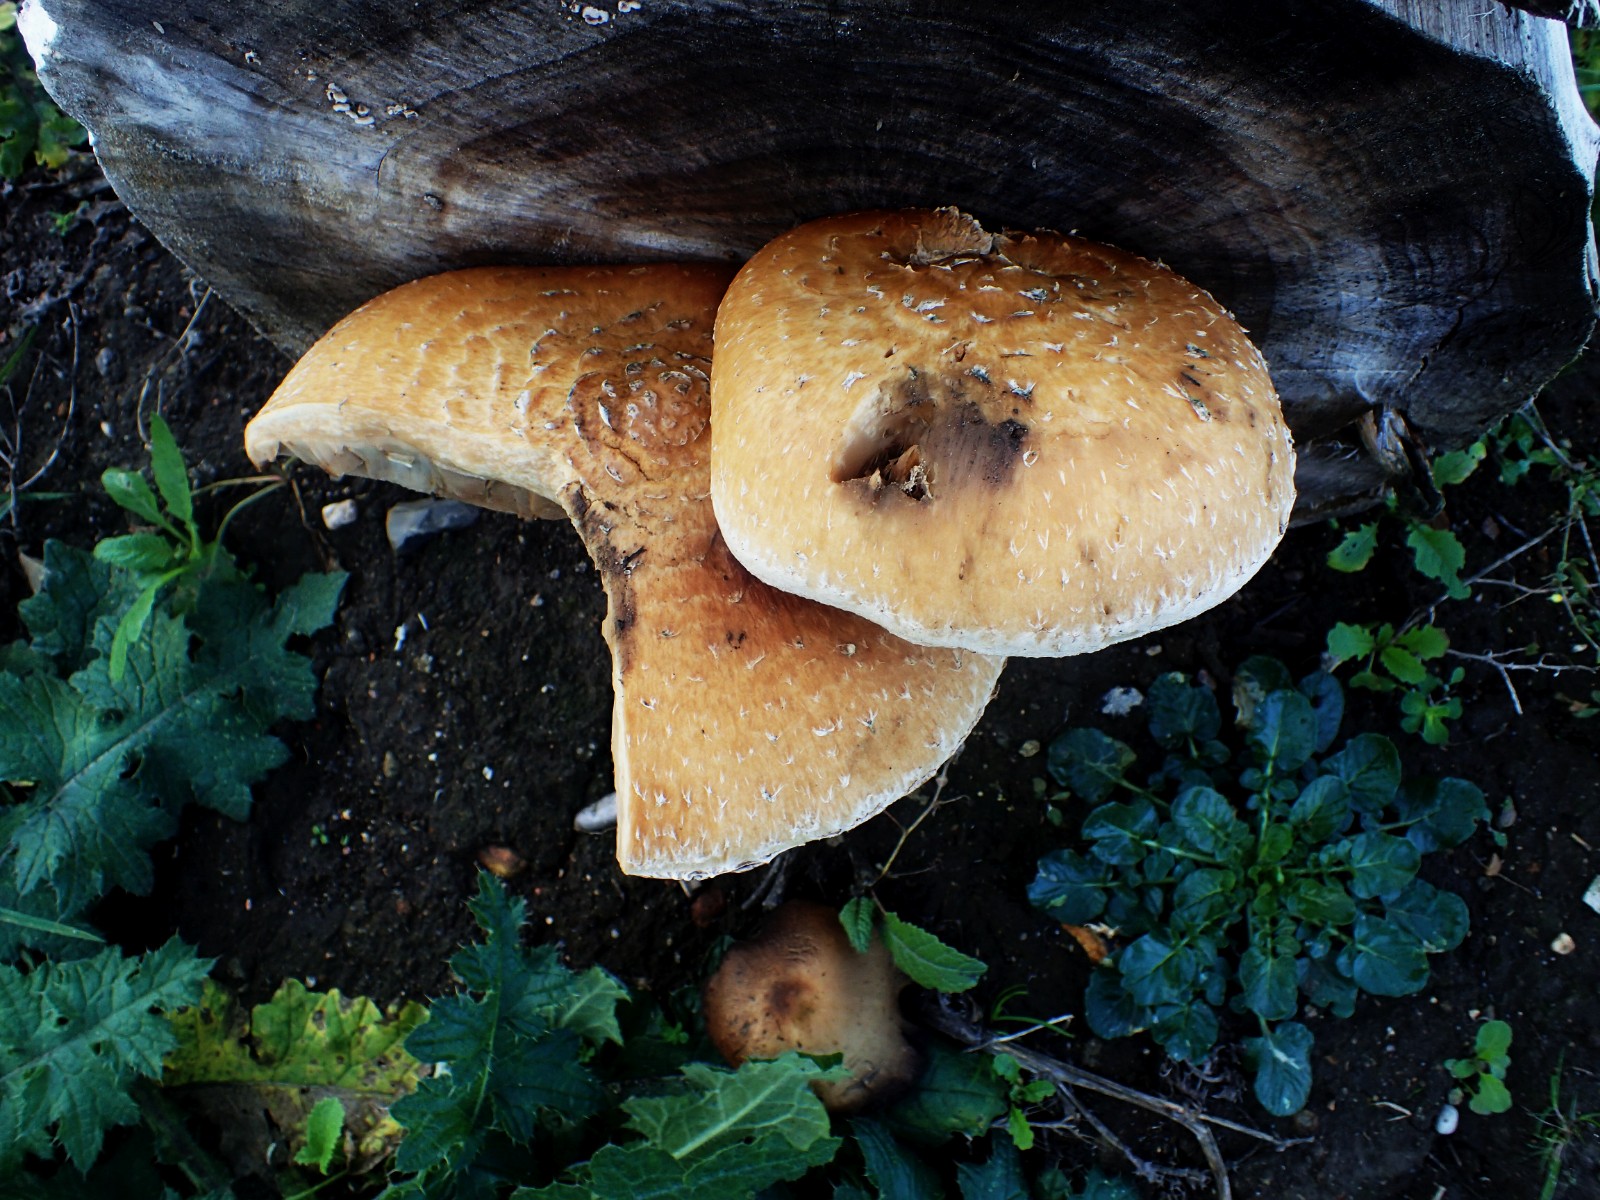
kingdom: Fungi
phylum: Basidiomycota
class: Agaricomycetes
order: Agaricales
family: Strophariaceae
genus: Pholiota
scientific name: Pholiota populnea
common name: poppel-kæmpeskælhat
